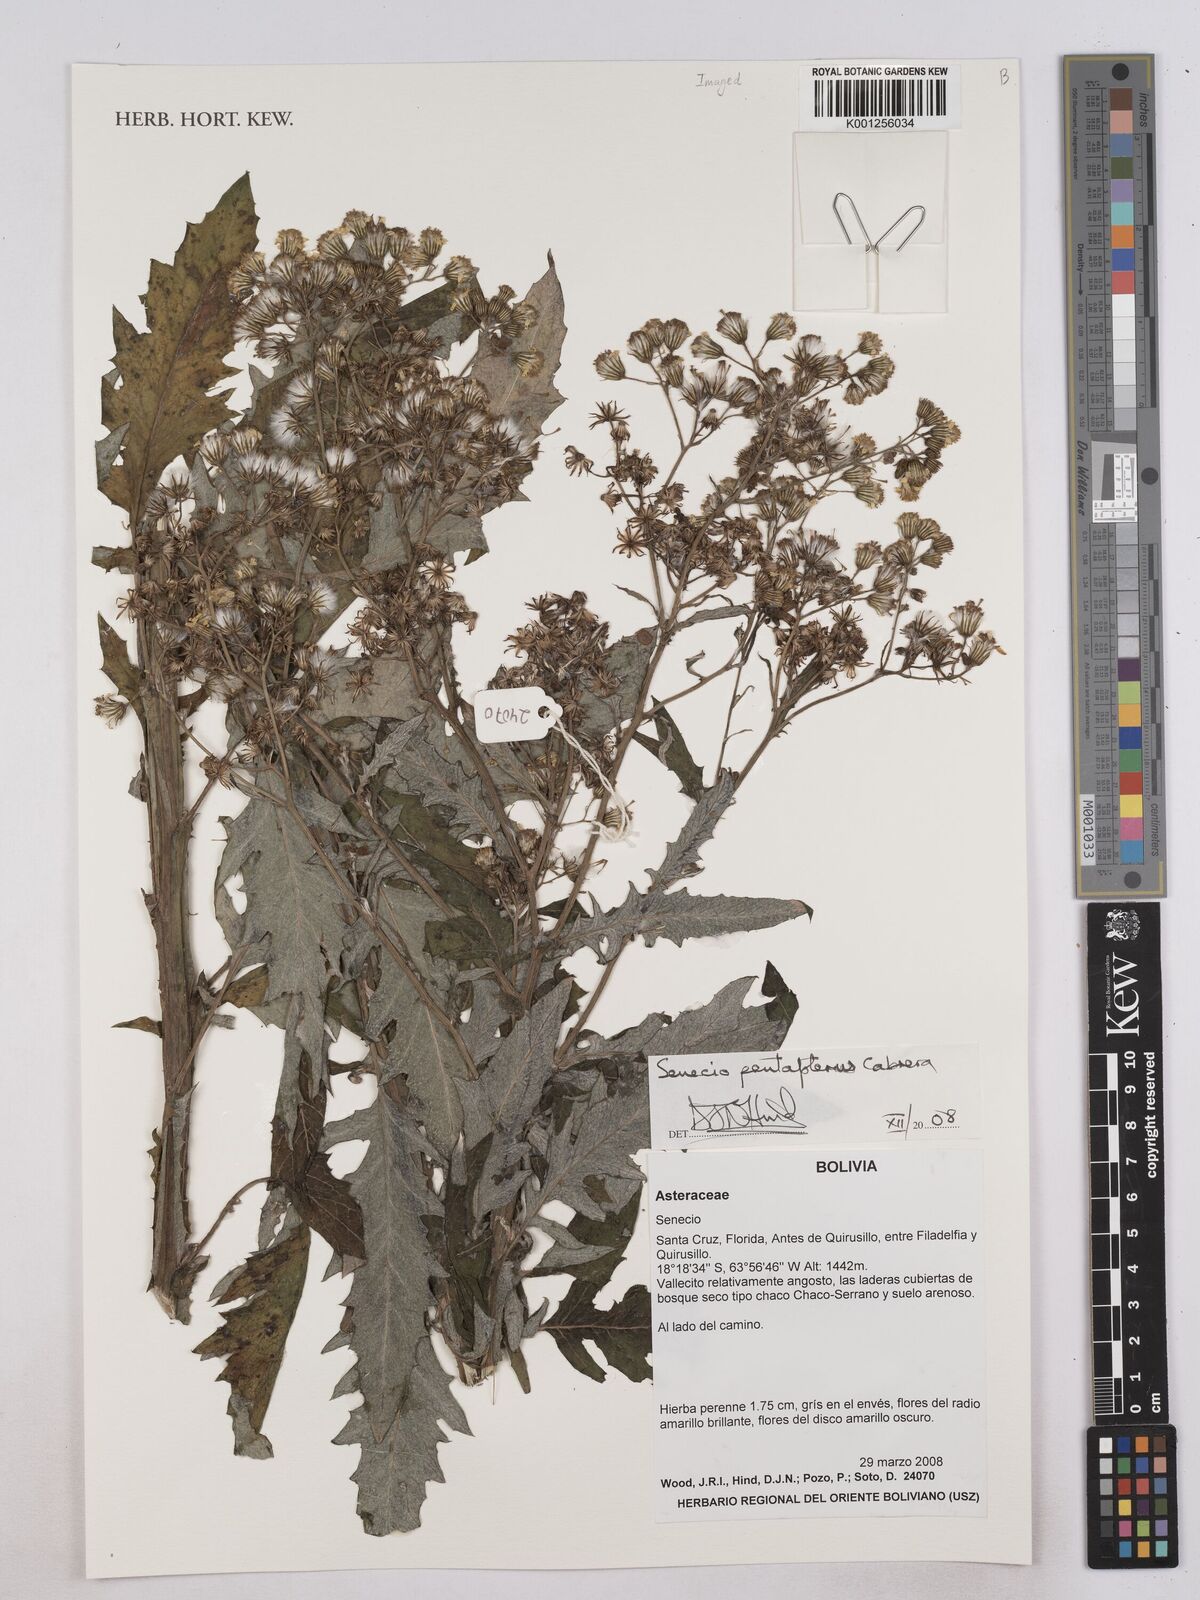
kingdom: Plantae
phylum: Tracheophyta
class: Magnoliopsida
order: Asterales
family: Asteraceae
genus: Senecio
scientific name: Senecio pentapterus
